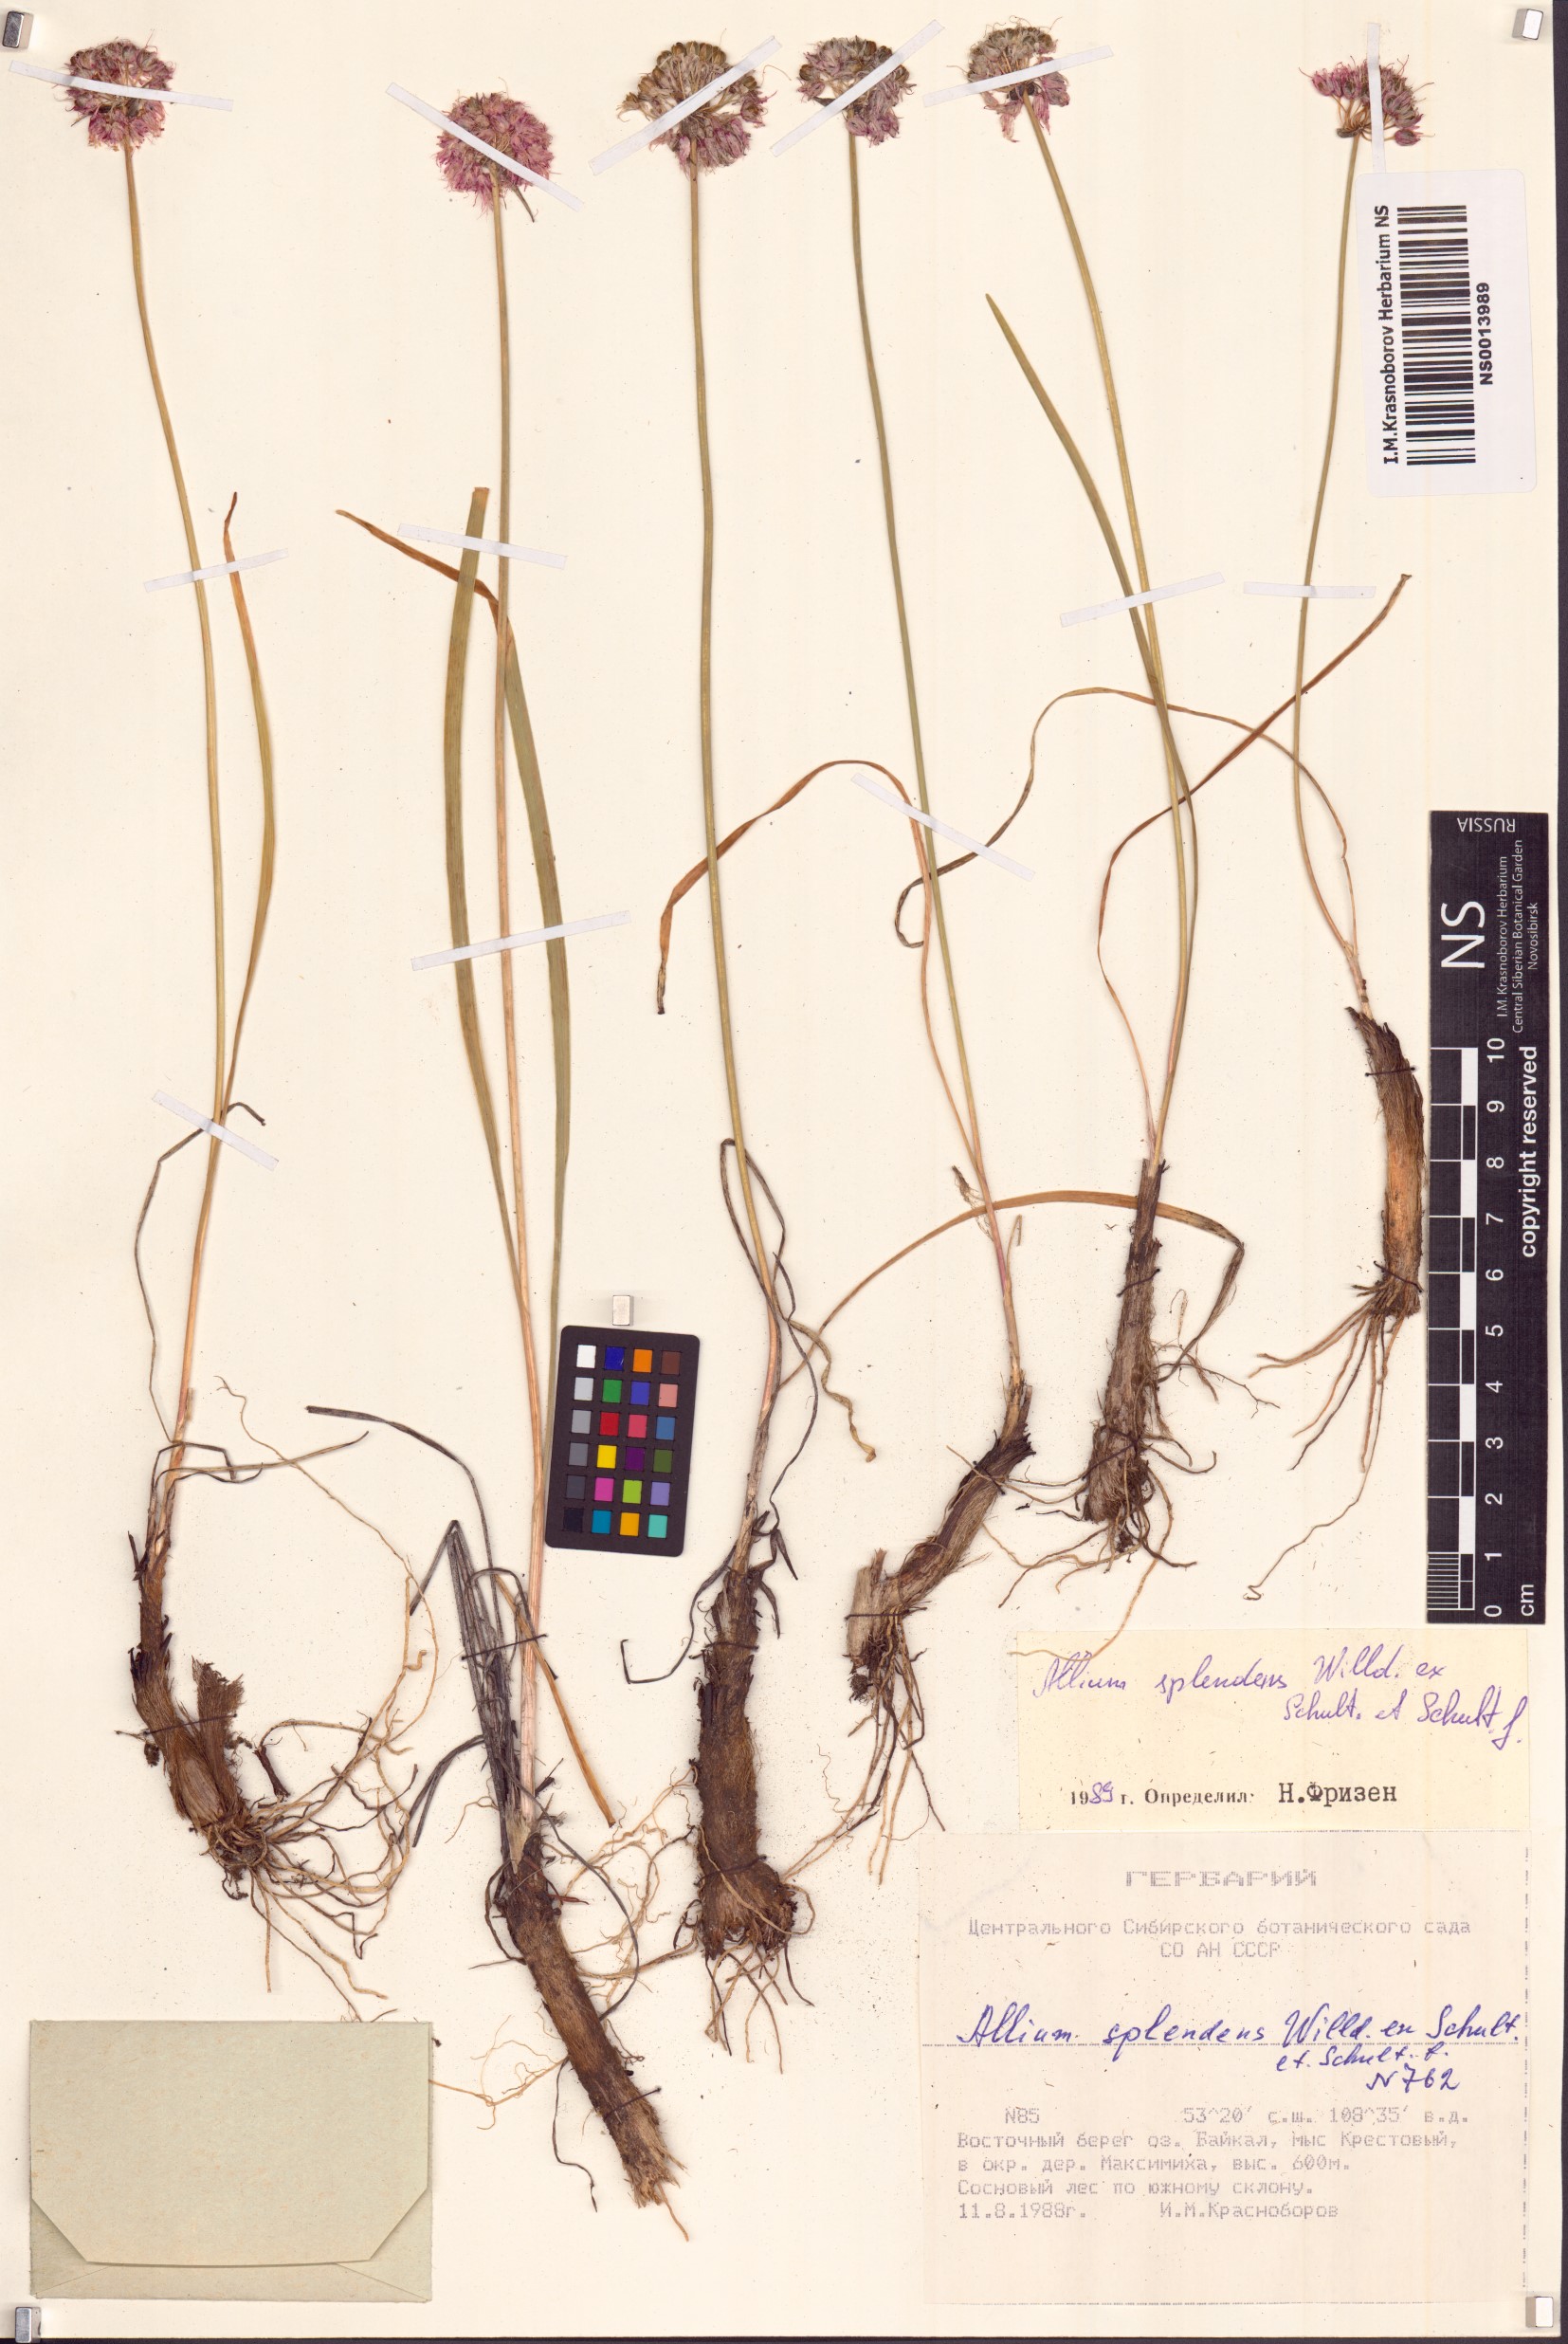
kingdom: Plantae
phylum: Tracheophyta
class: Liliopsida
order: Asparagales
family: Amaryllidaceae
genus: Allium
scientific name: Allium splendens
